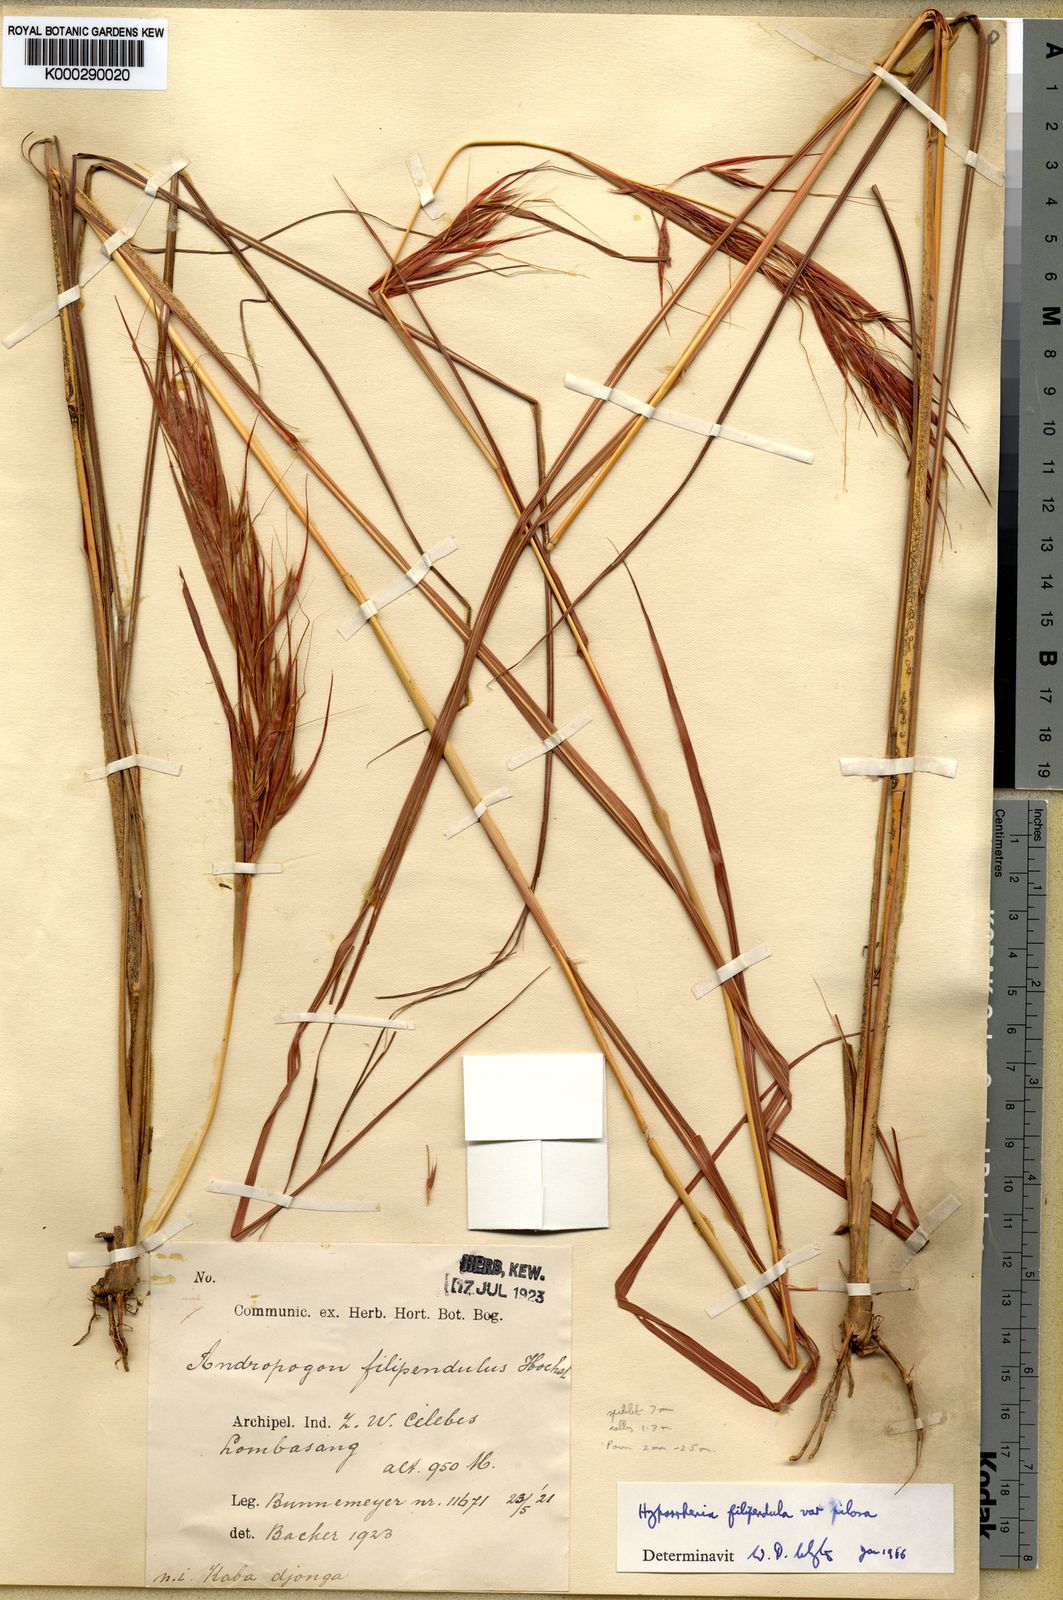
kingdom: Plantae
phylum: Tracheophyta
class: Liliopsida
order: Poales
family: Poaceae
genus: Hyparrhenia
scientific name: Hyparrhenia praetermissa
